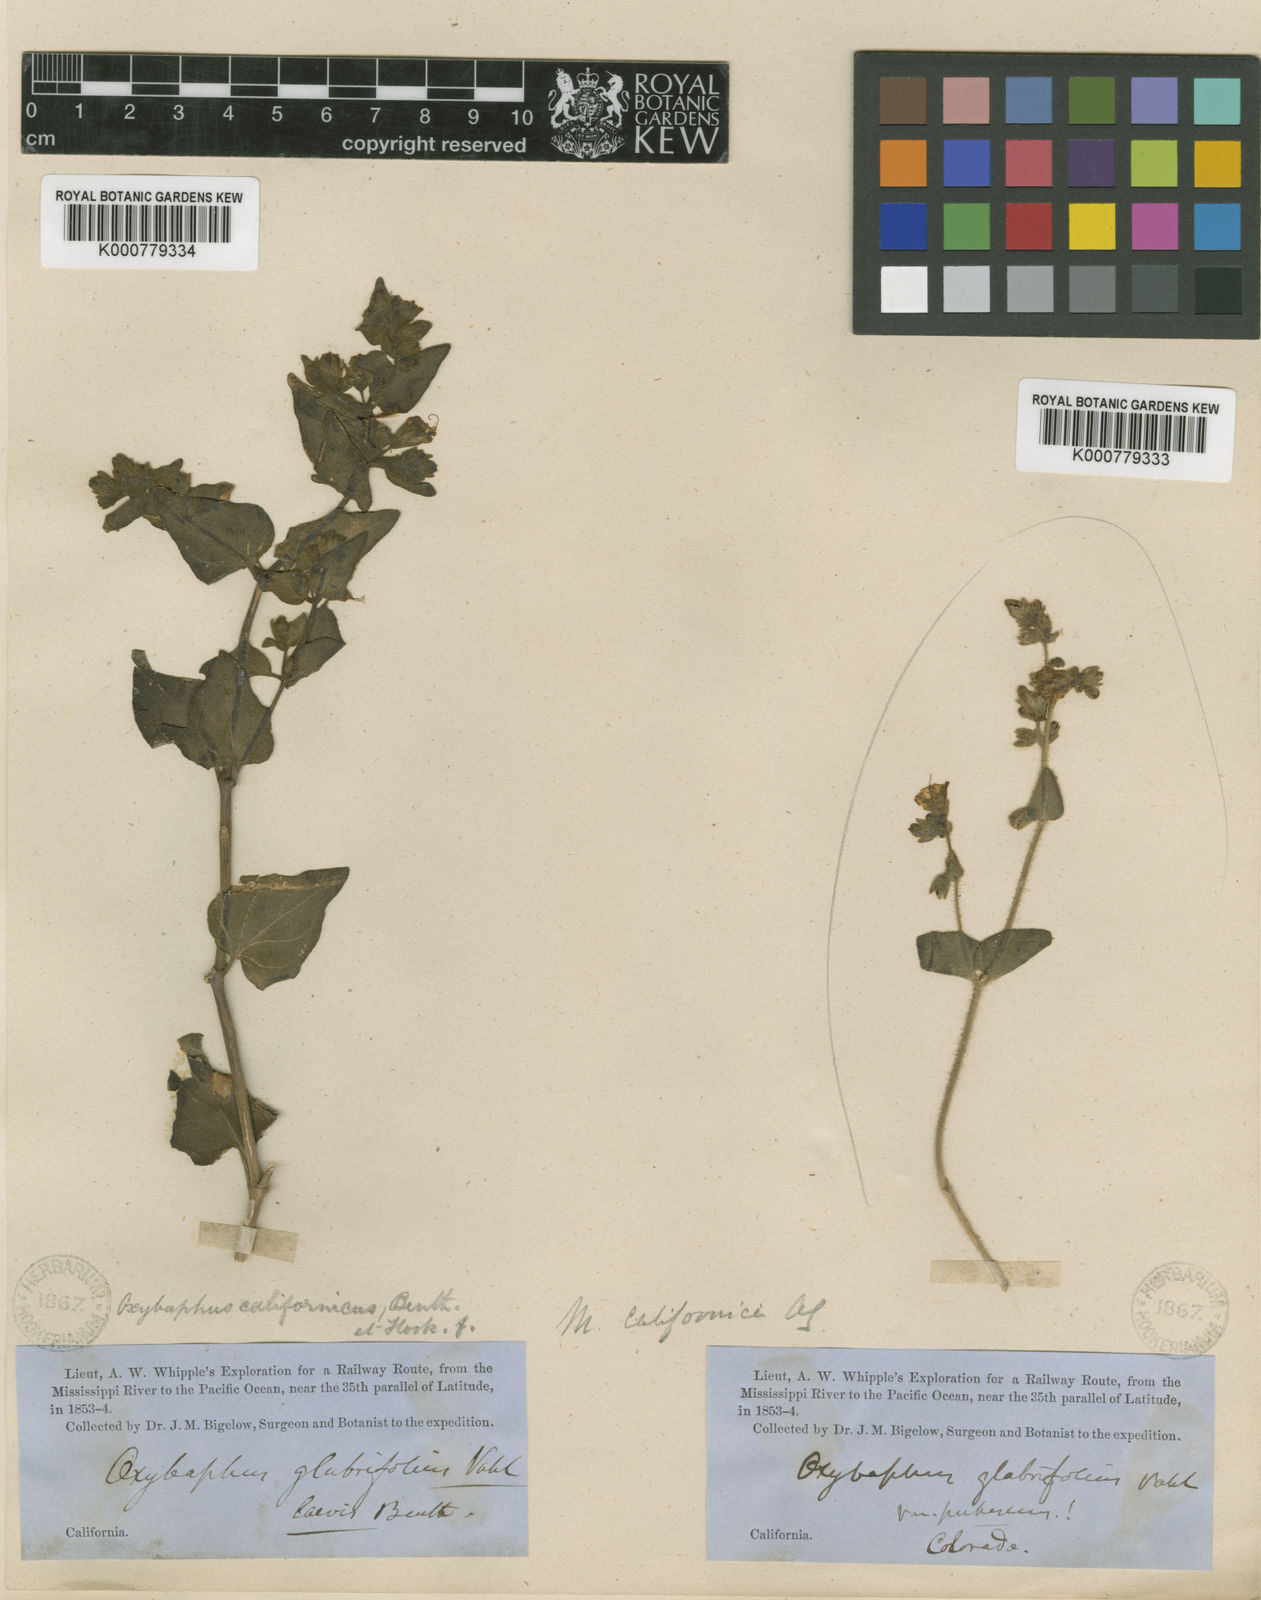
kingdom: Plantae
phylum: Tracheophyta
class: Magnoliopsida
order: Caryophyllales
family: Nyctaginaceae
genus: Mirabilis
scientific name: Mirabilis laevis
